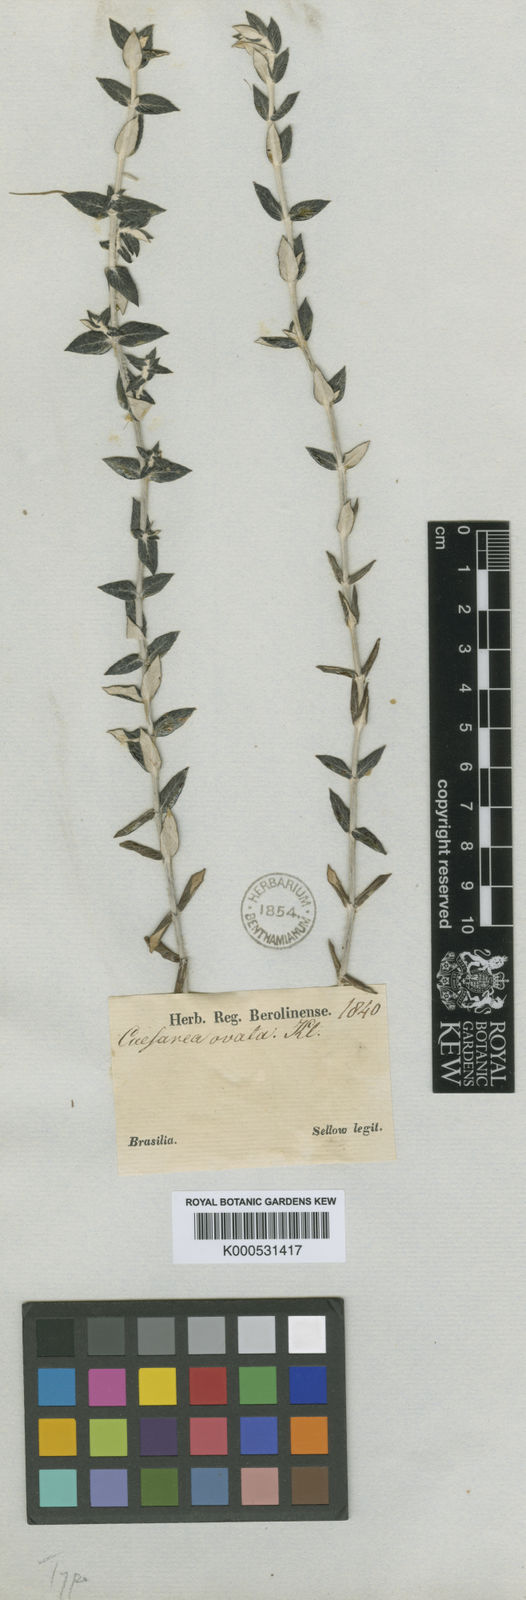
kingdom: Plantae
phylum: Tracheophyta
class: Magnoliopsida
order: Geraniales
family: Vivianiaceae
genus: Viviania
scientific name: Viviania
